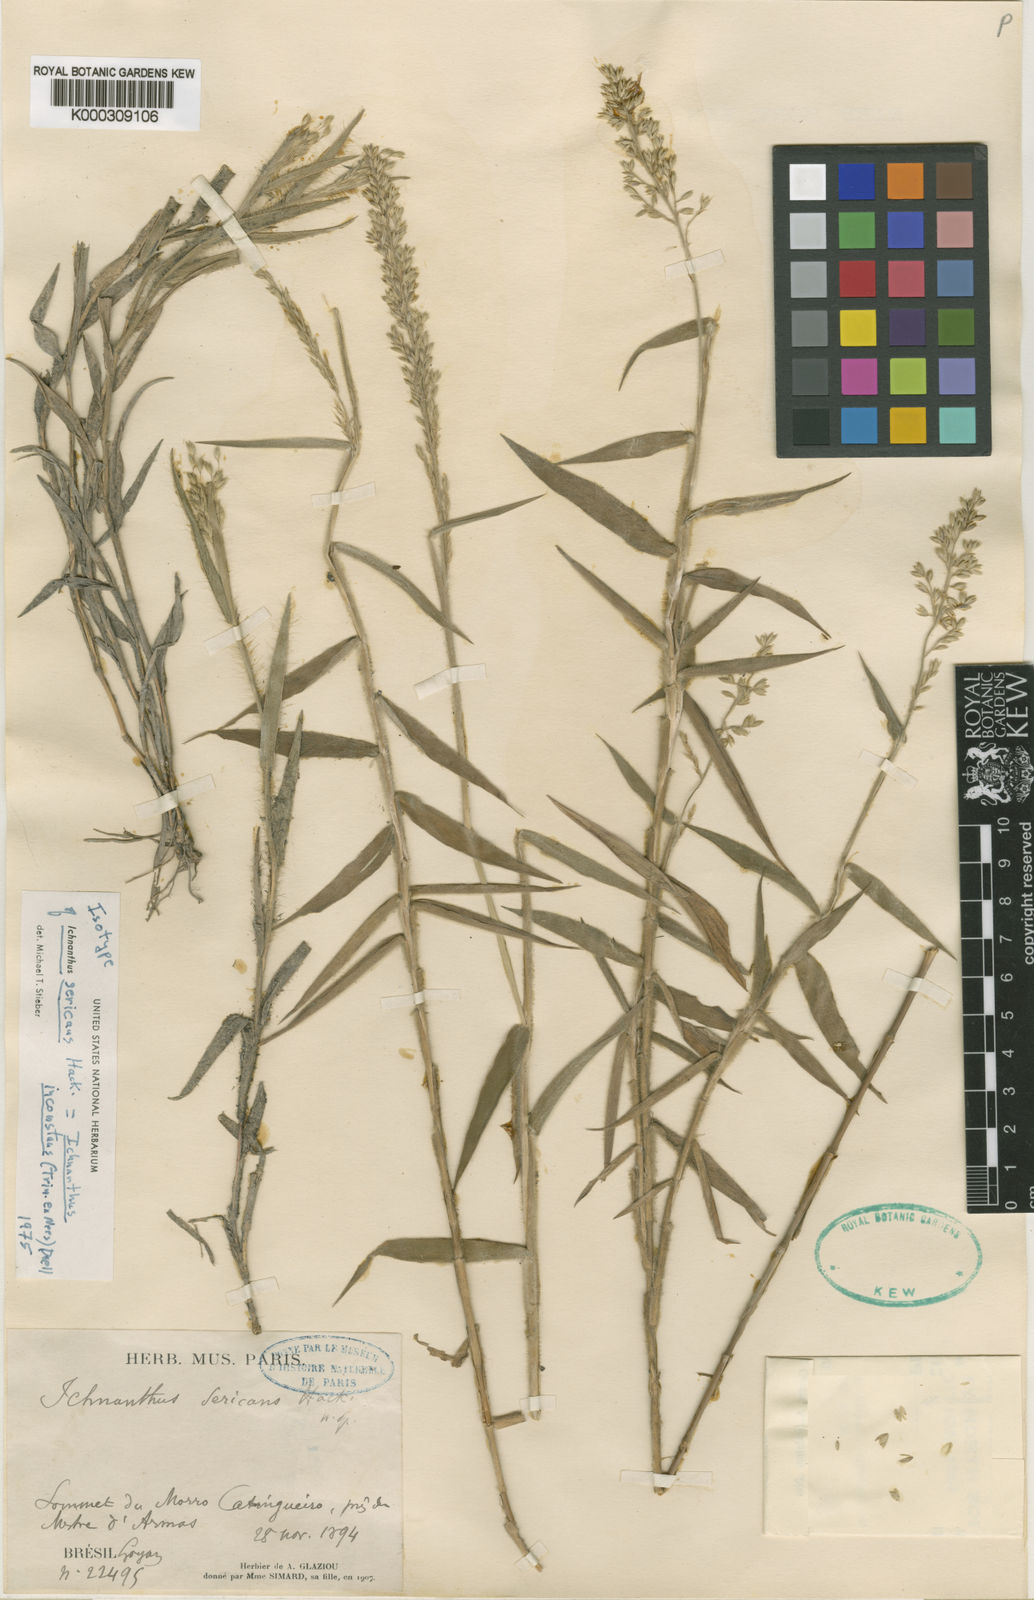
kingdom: Plantae
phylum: Tracheophyta
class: Liliopsida
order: Poales
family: Poaceae
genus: Ichnanthus
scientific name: Ichnanthus
